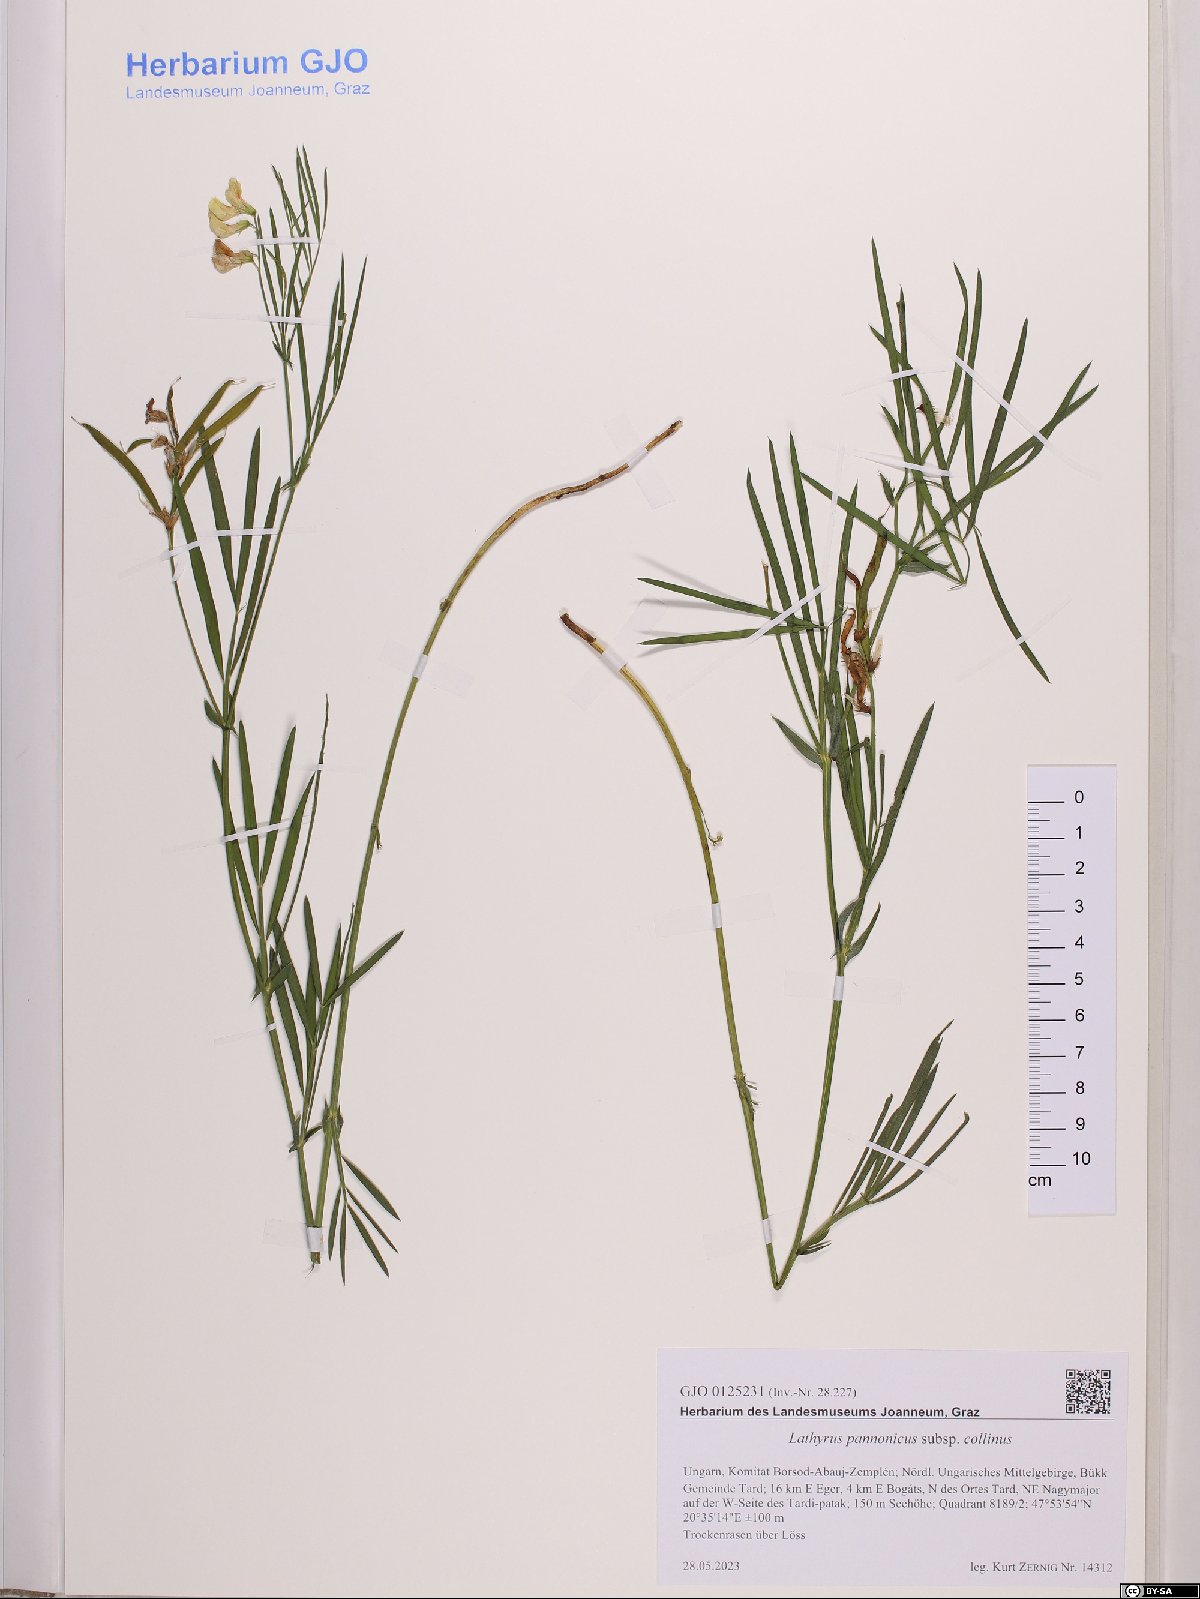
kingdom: Plantae
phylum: Tracheophyta
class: Magnoliopsida
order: Fabales
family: Fabaceae
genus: Lathyrus
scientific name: Lathyrus pannonicus
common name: Pea
